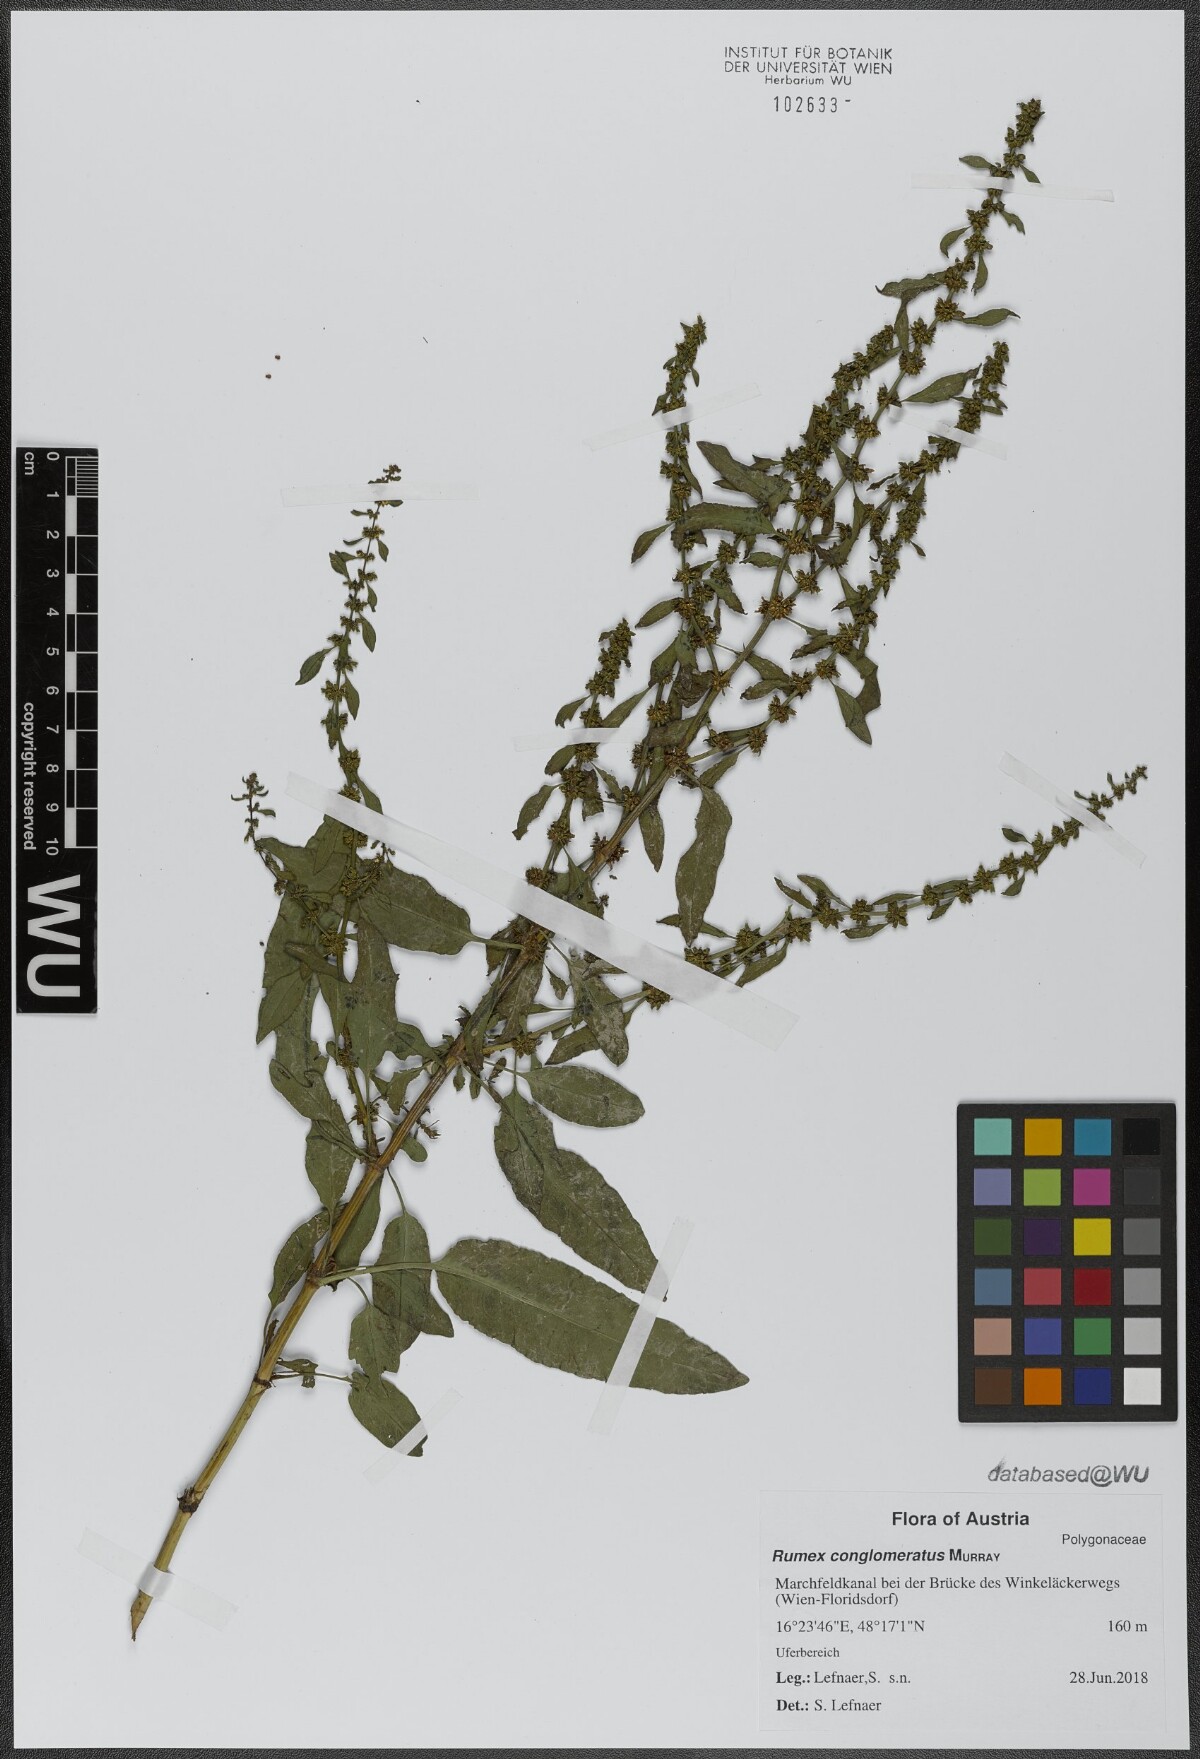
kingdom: Plantae
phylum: Tracheophyta
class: Magnoliopsida
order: Caryophyllales
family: Polygonaceae
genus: Rumex
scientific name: Rumex conglomeratus
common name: Clustered dock
